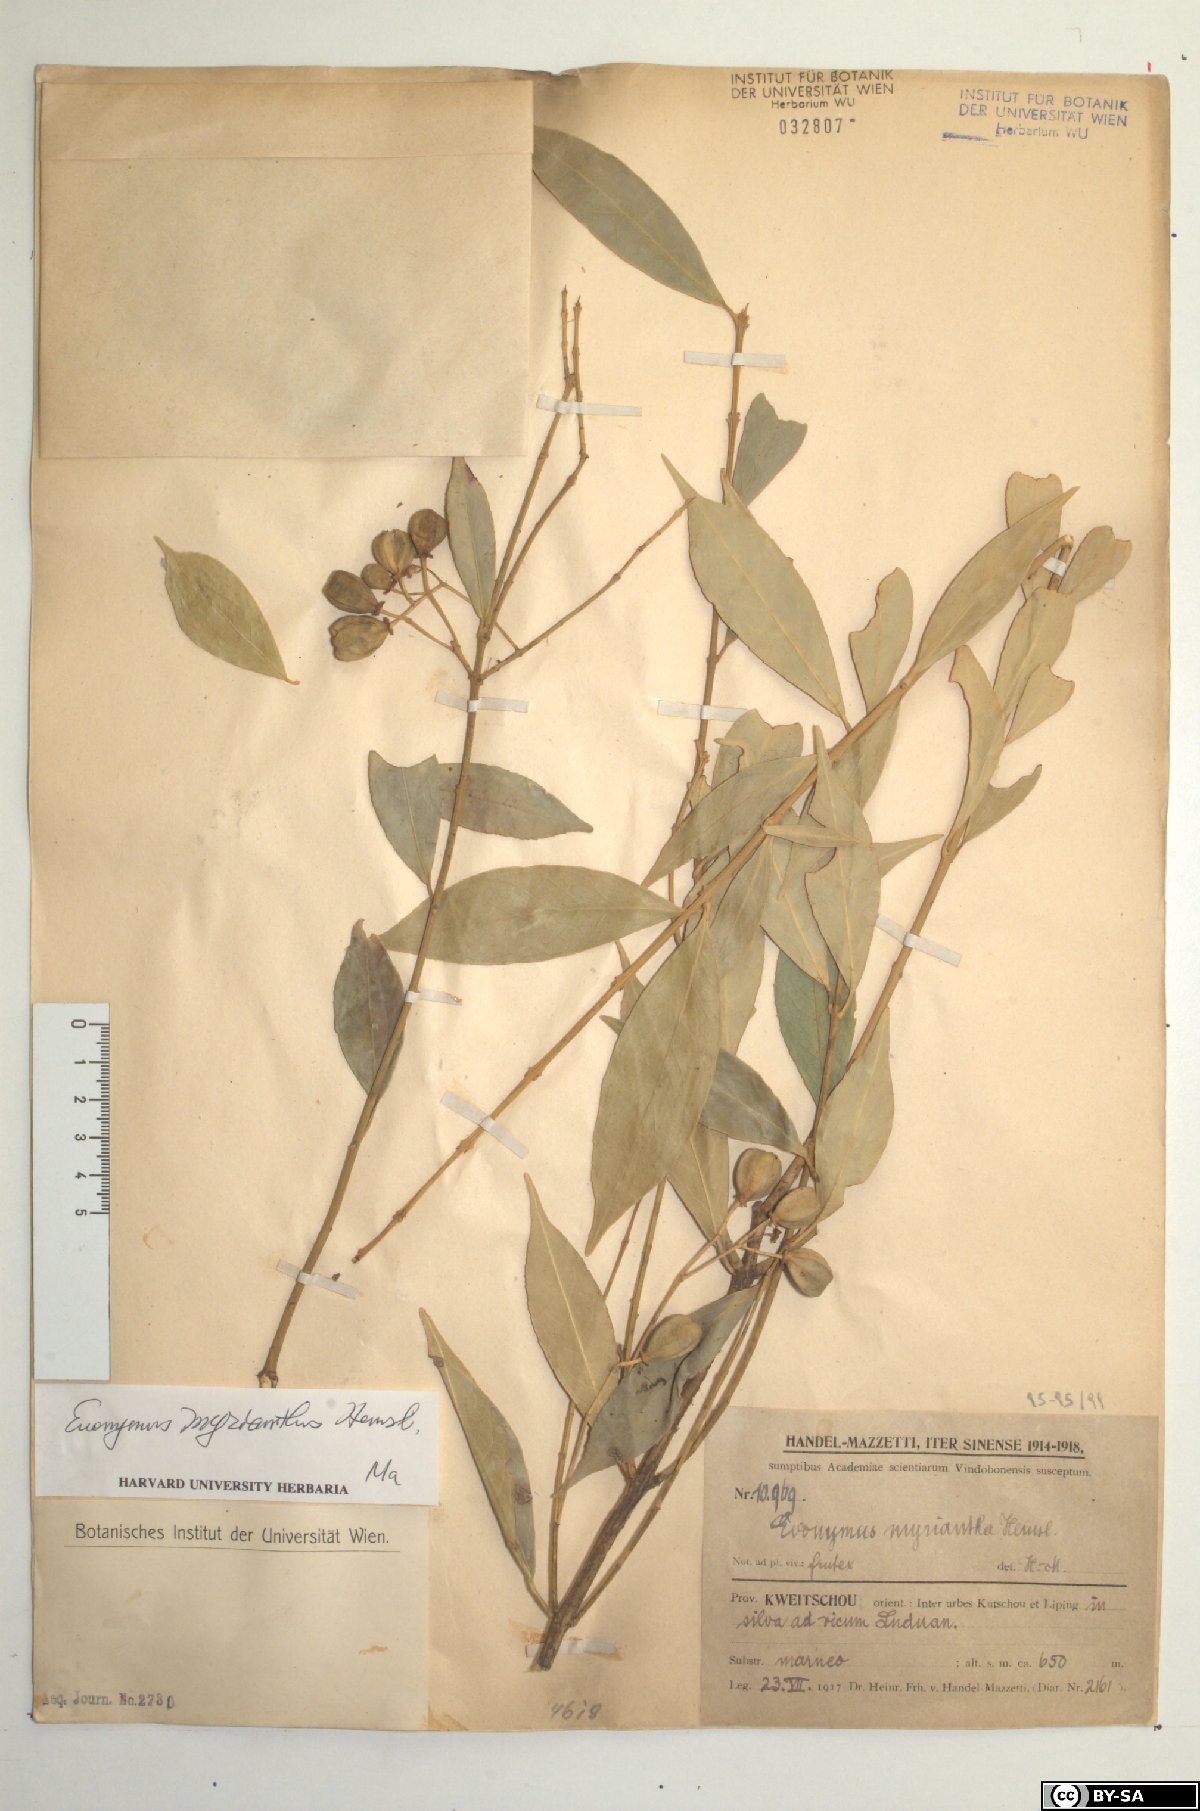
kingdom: Plantae
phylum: Tracheophyta
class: Magnoliopsida
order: Celastrales
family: Celastraceae
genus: Euonymus
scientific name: Euonymus myrianthus
